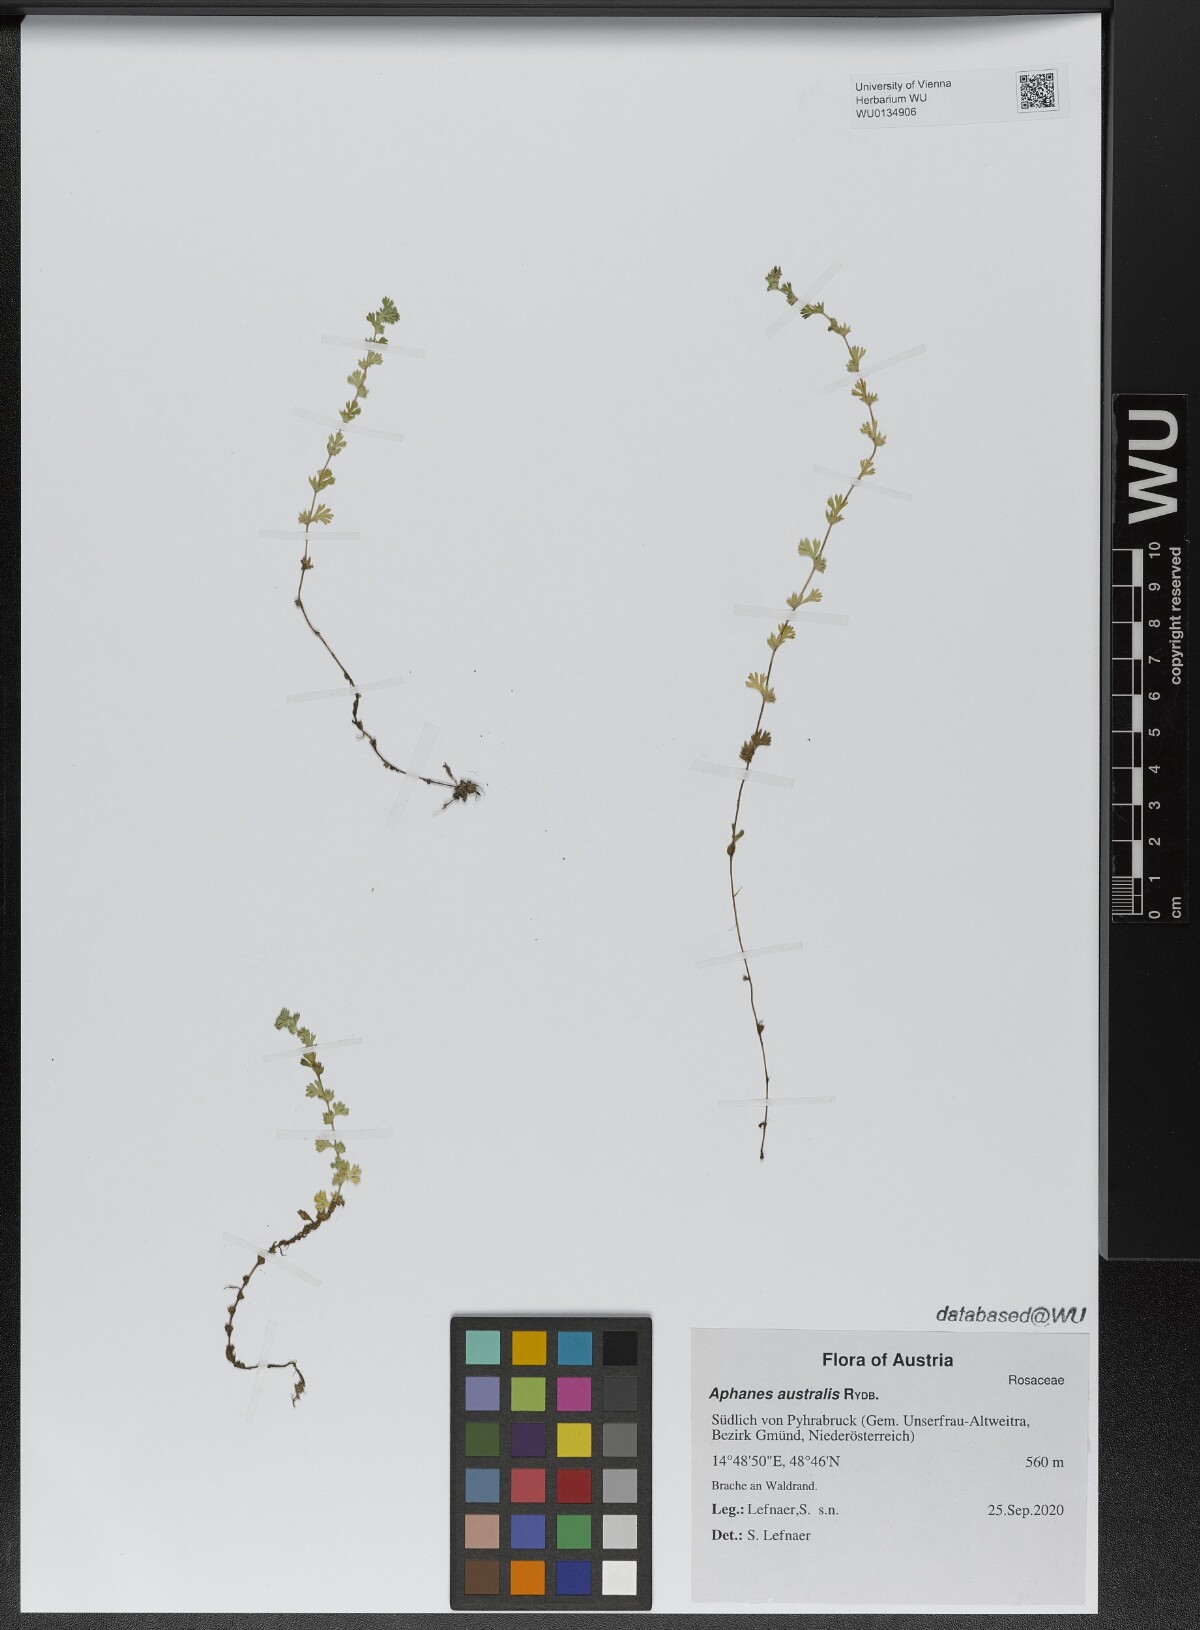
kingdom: Plantae
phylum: Tracheophyta
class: Magnoliopsida
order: Rosales
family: Rosaceae
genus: Aphanes
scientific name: Aphanes australis
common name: Slender parsley-piert
